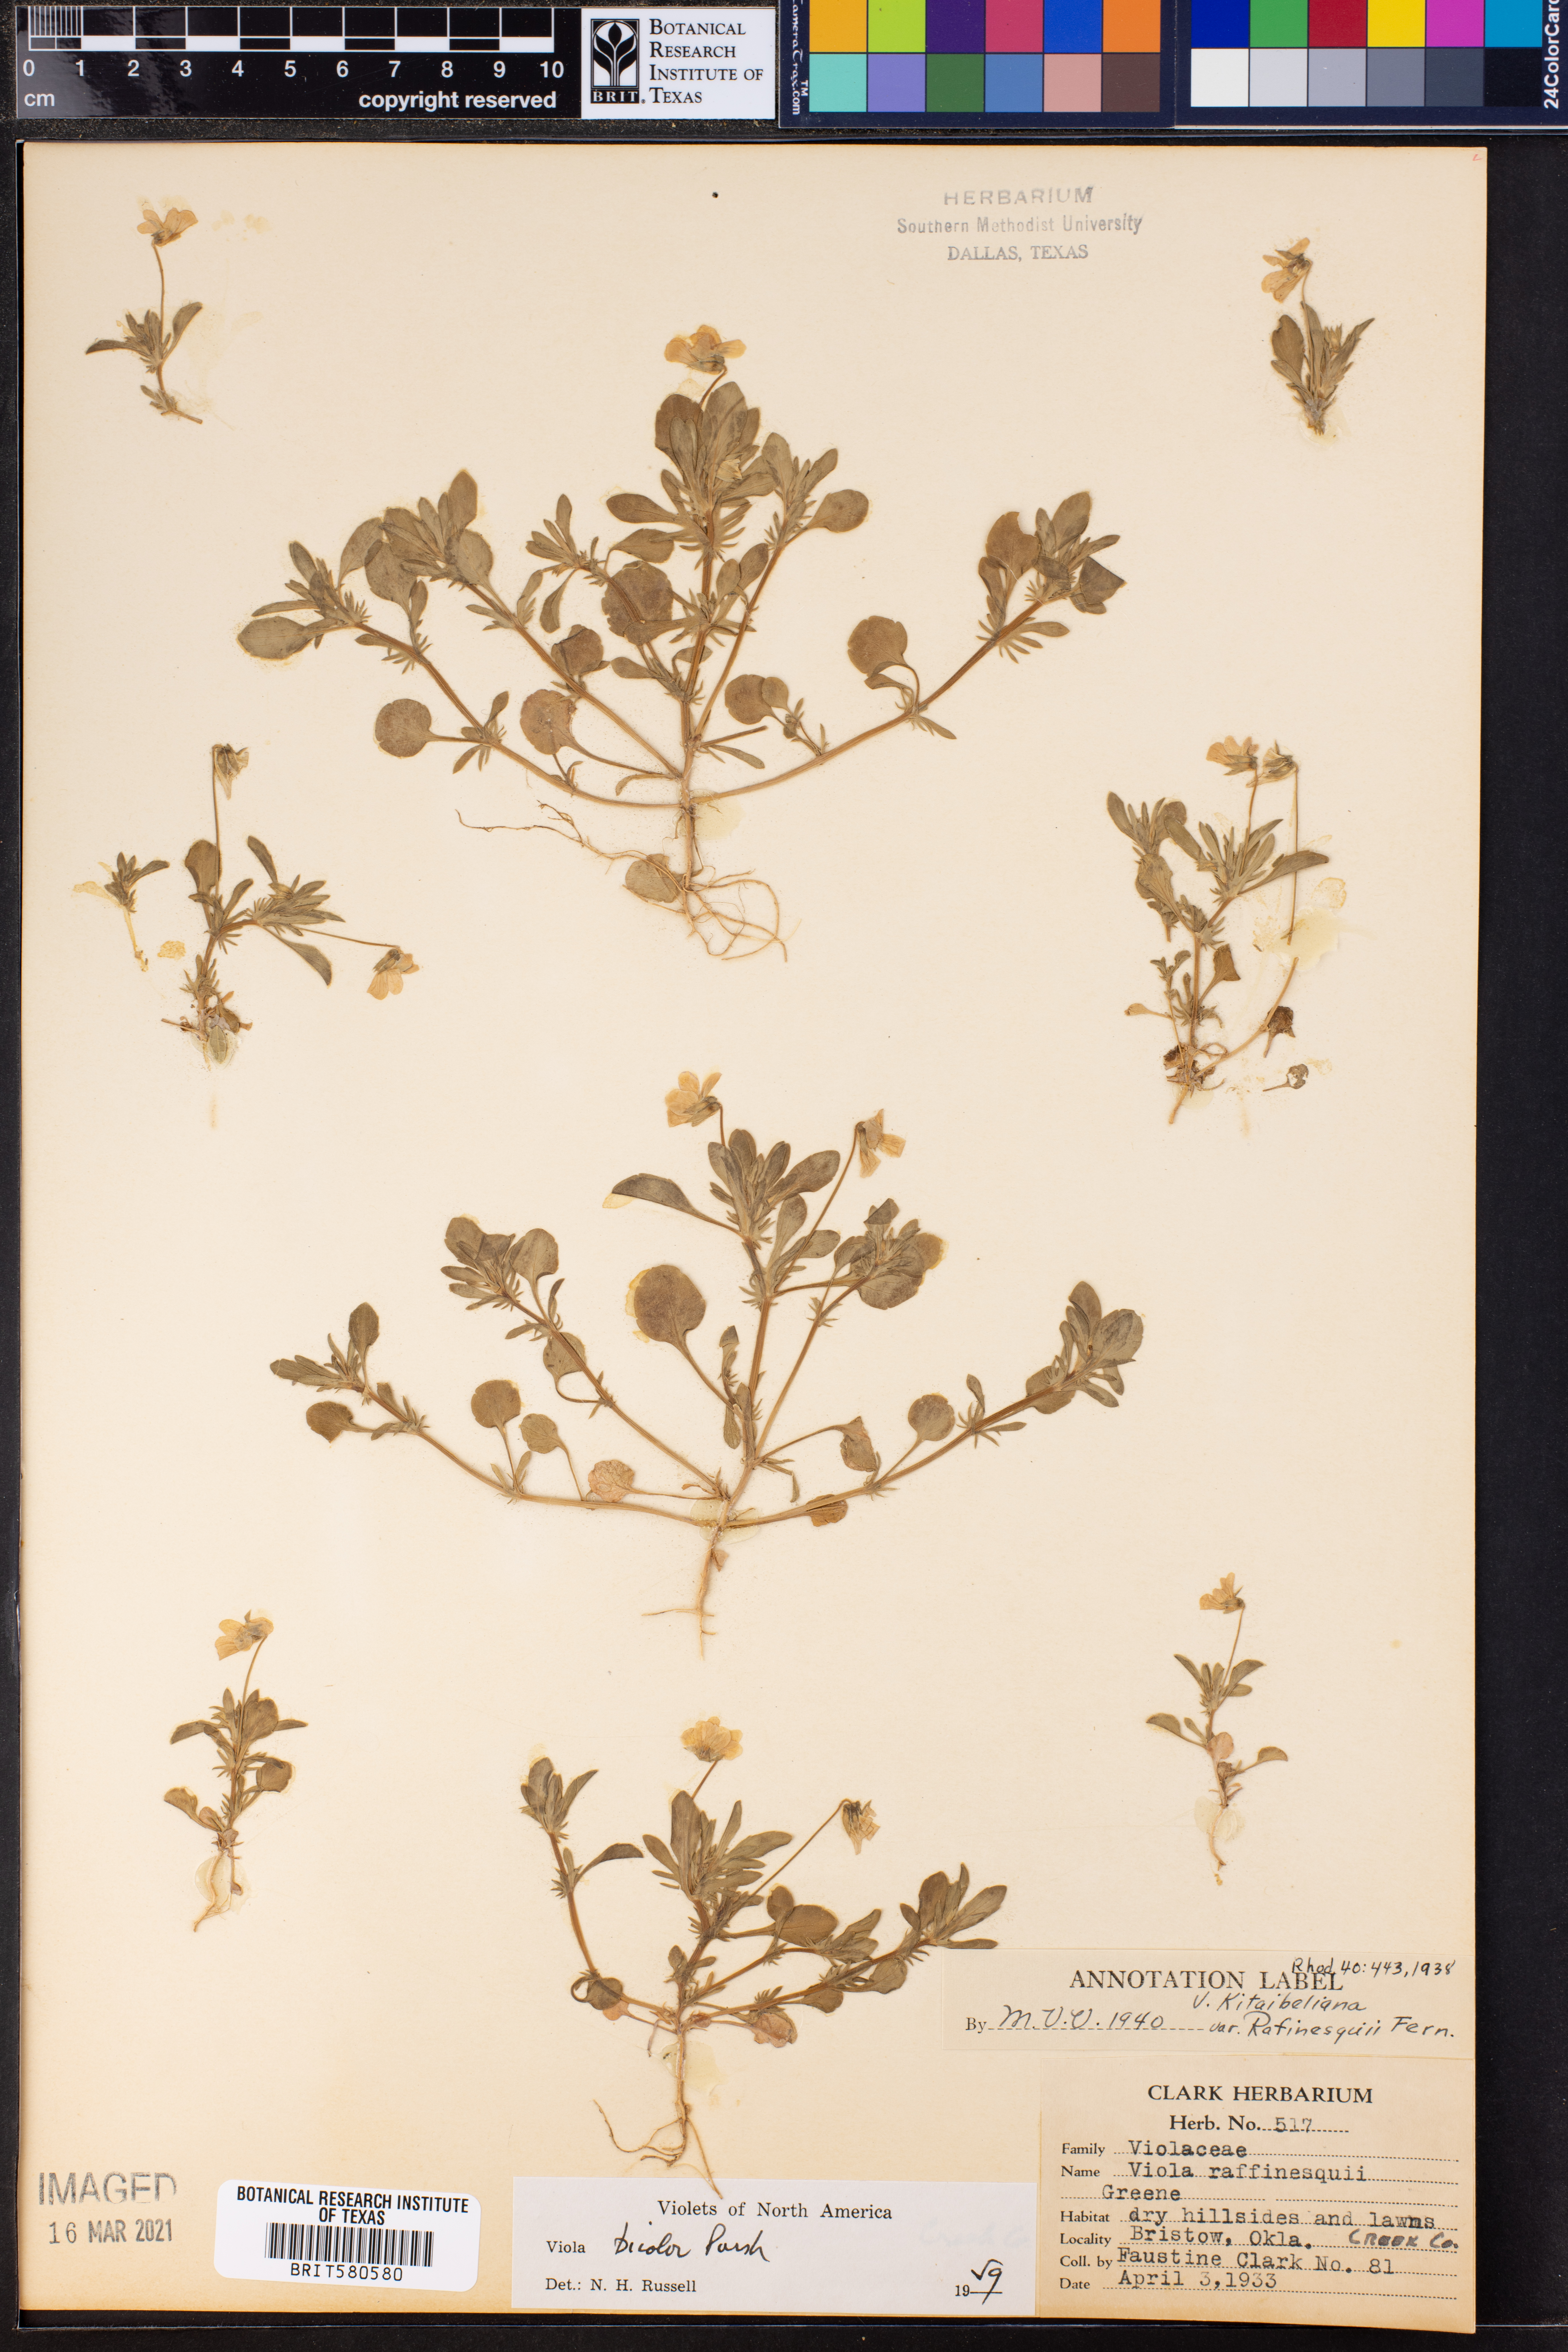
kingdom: Plantae
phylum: Tracheophyta
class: Magnoliopsida
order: Malpighiales
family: Violaceae
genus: Viola
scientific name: Viola rafinesquei
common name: American field pansy
